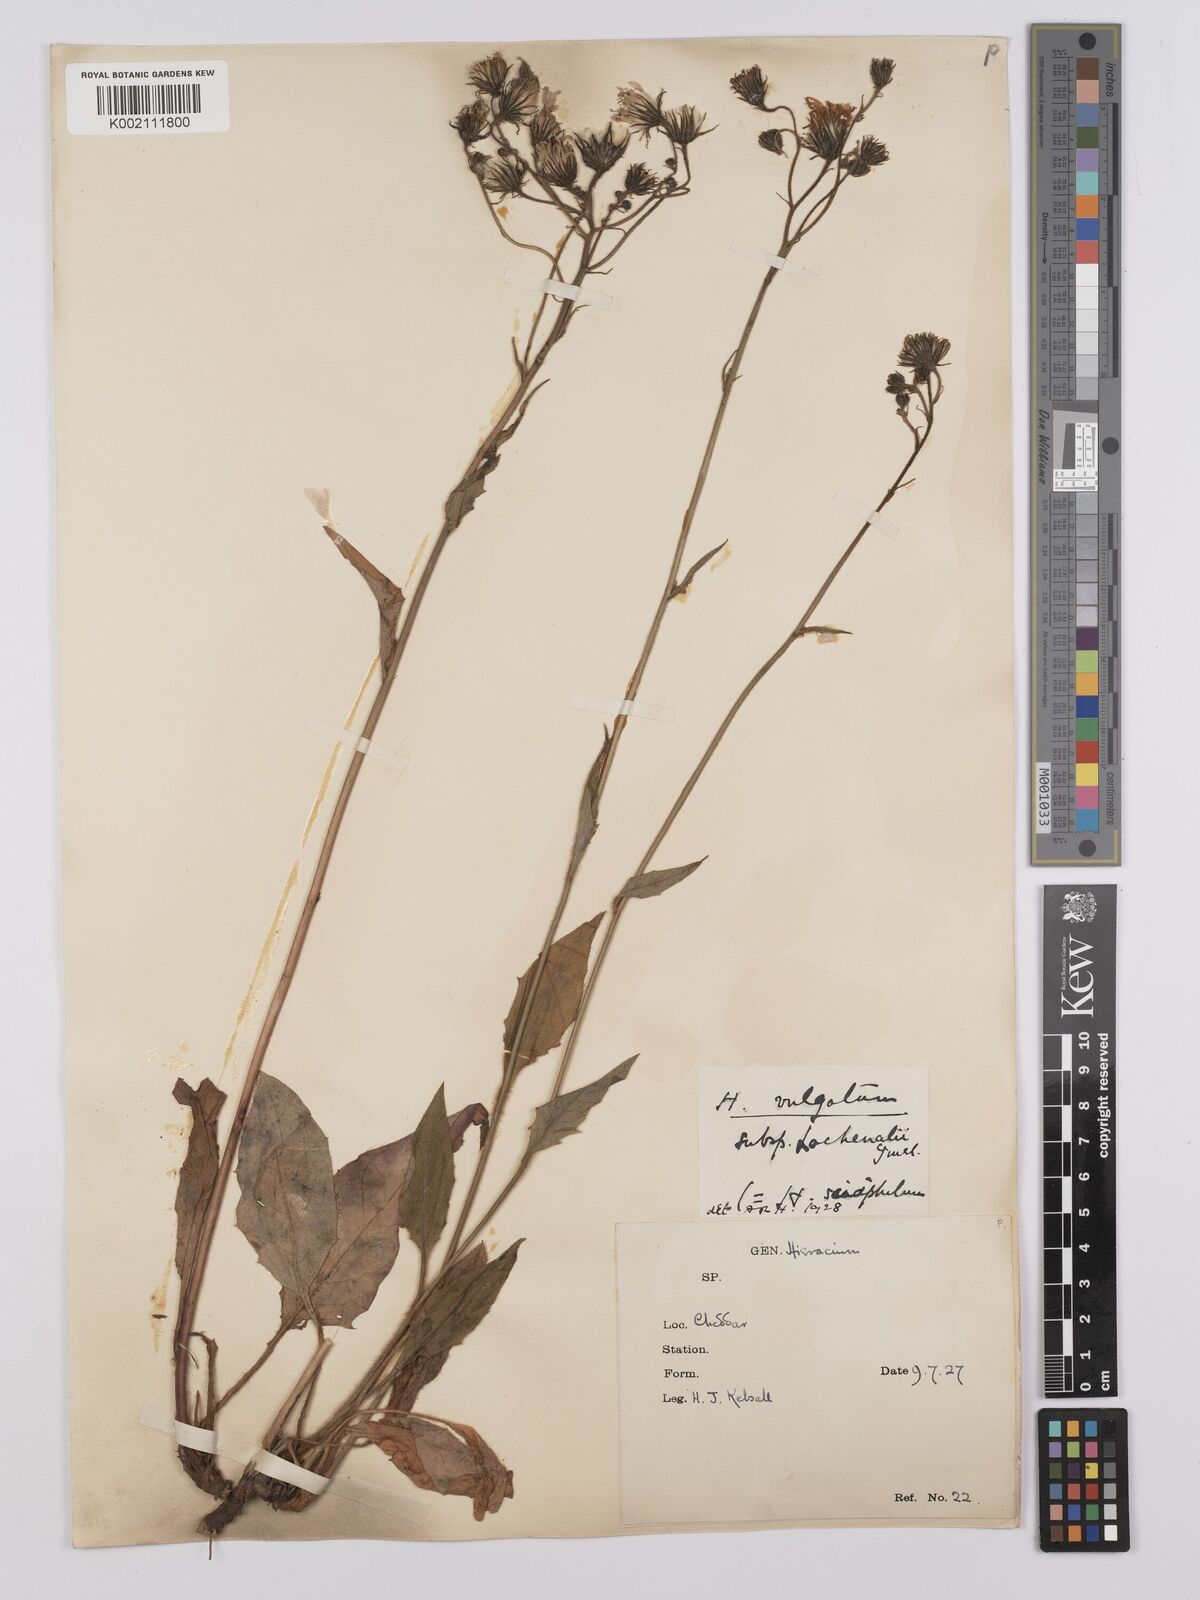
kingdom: Plantae
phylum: Tracheophyta
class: Magnoliopsida
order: Asterales
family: Asteraceae
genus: Hieracium
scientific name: Hieracium lachenalii
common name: Common hawkweed
